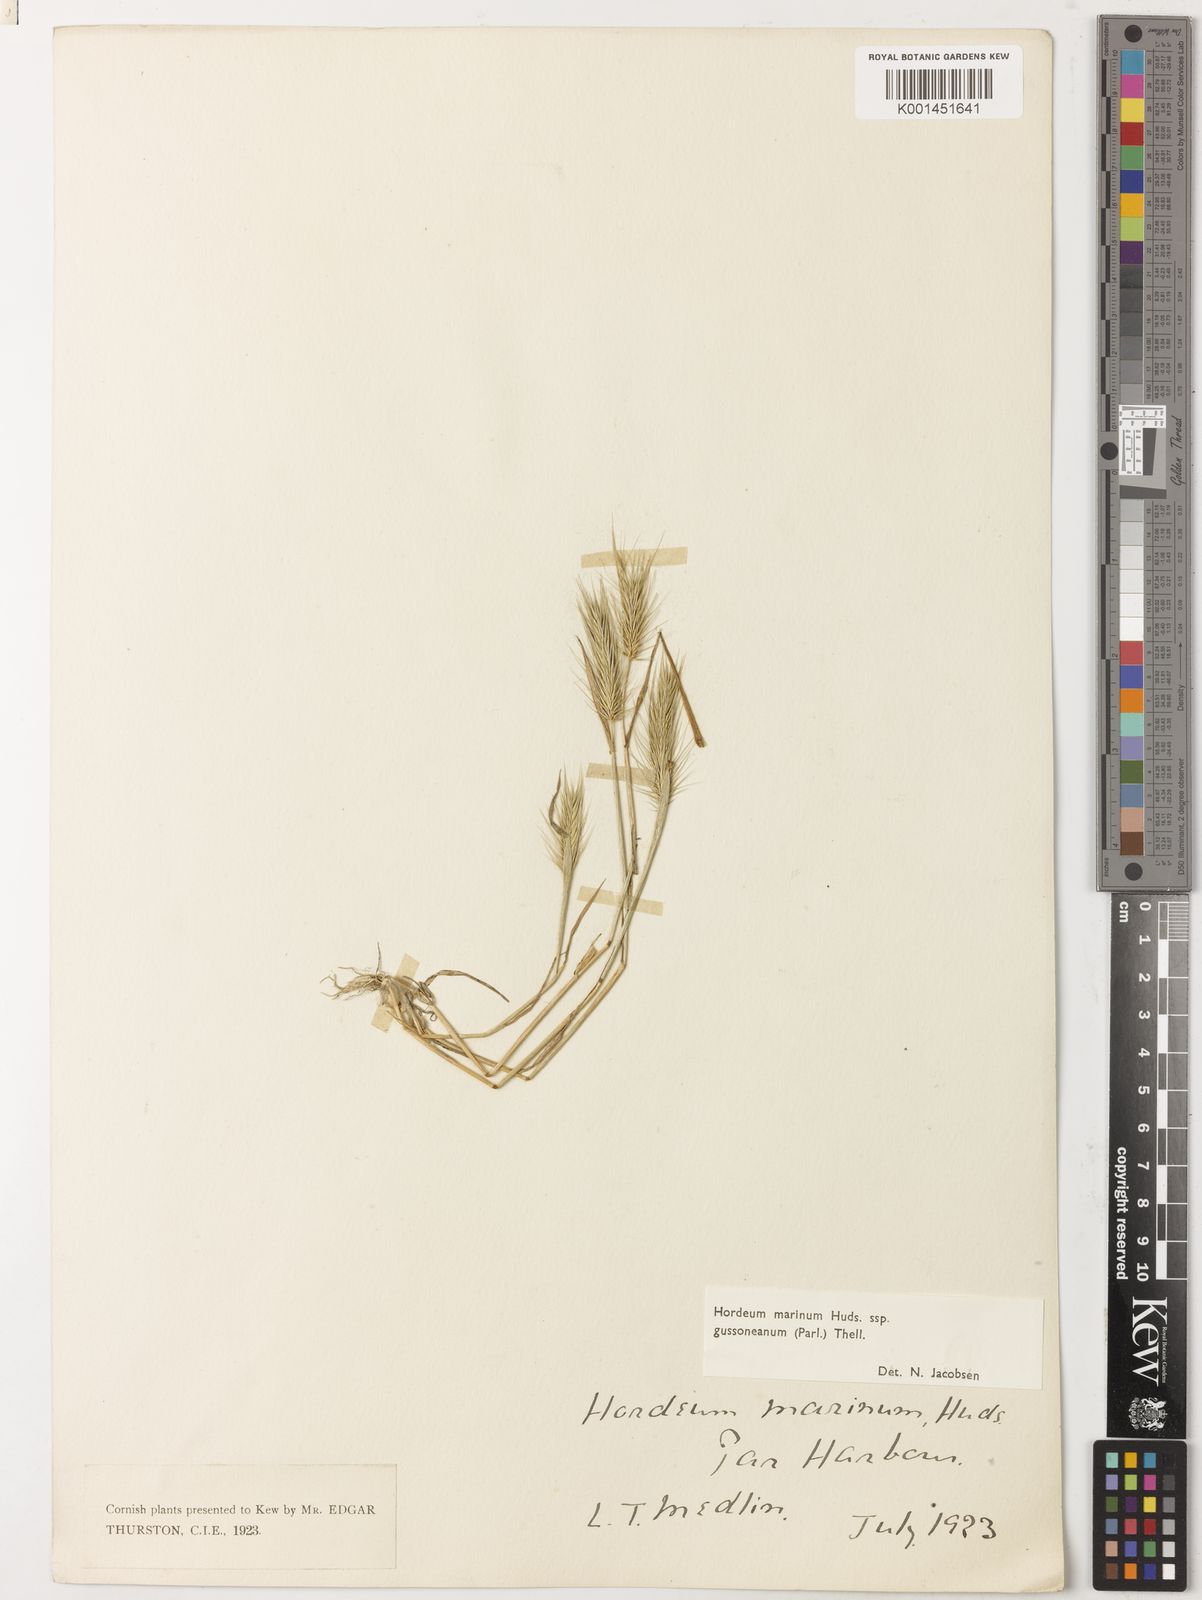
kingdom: Plantae
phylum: Tracheophyta
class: Liliopsida
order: Poales
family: Poaceae
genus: Hordeum
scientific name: Hordeum marinum
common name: Sea barley
